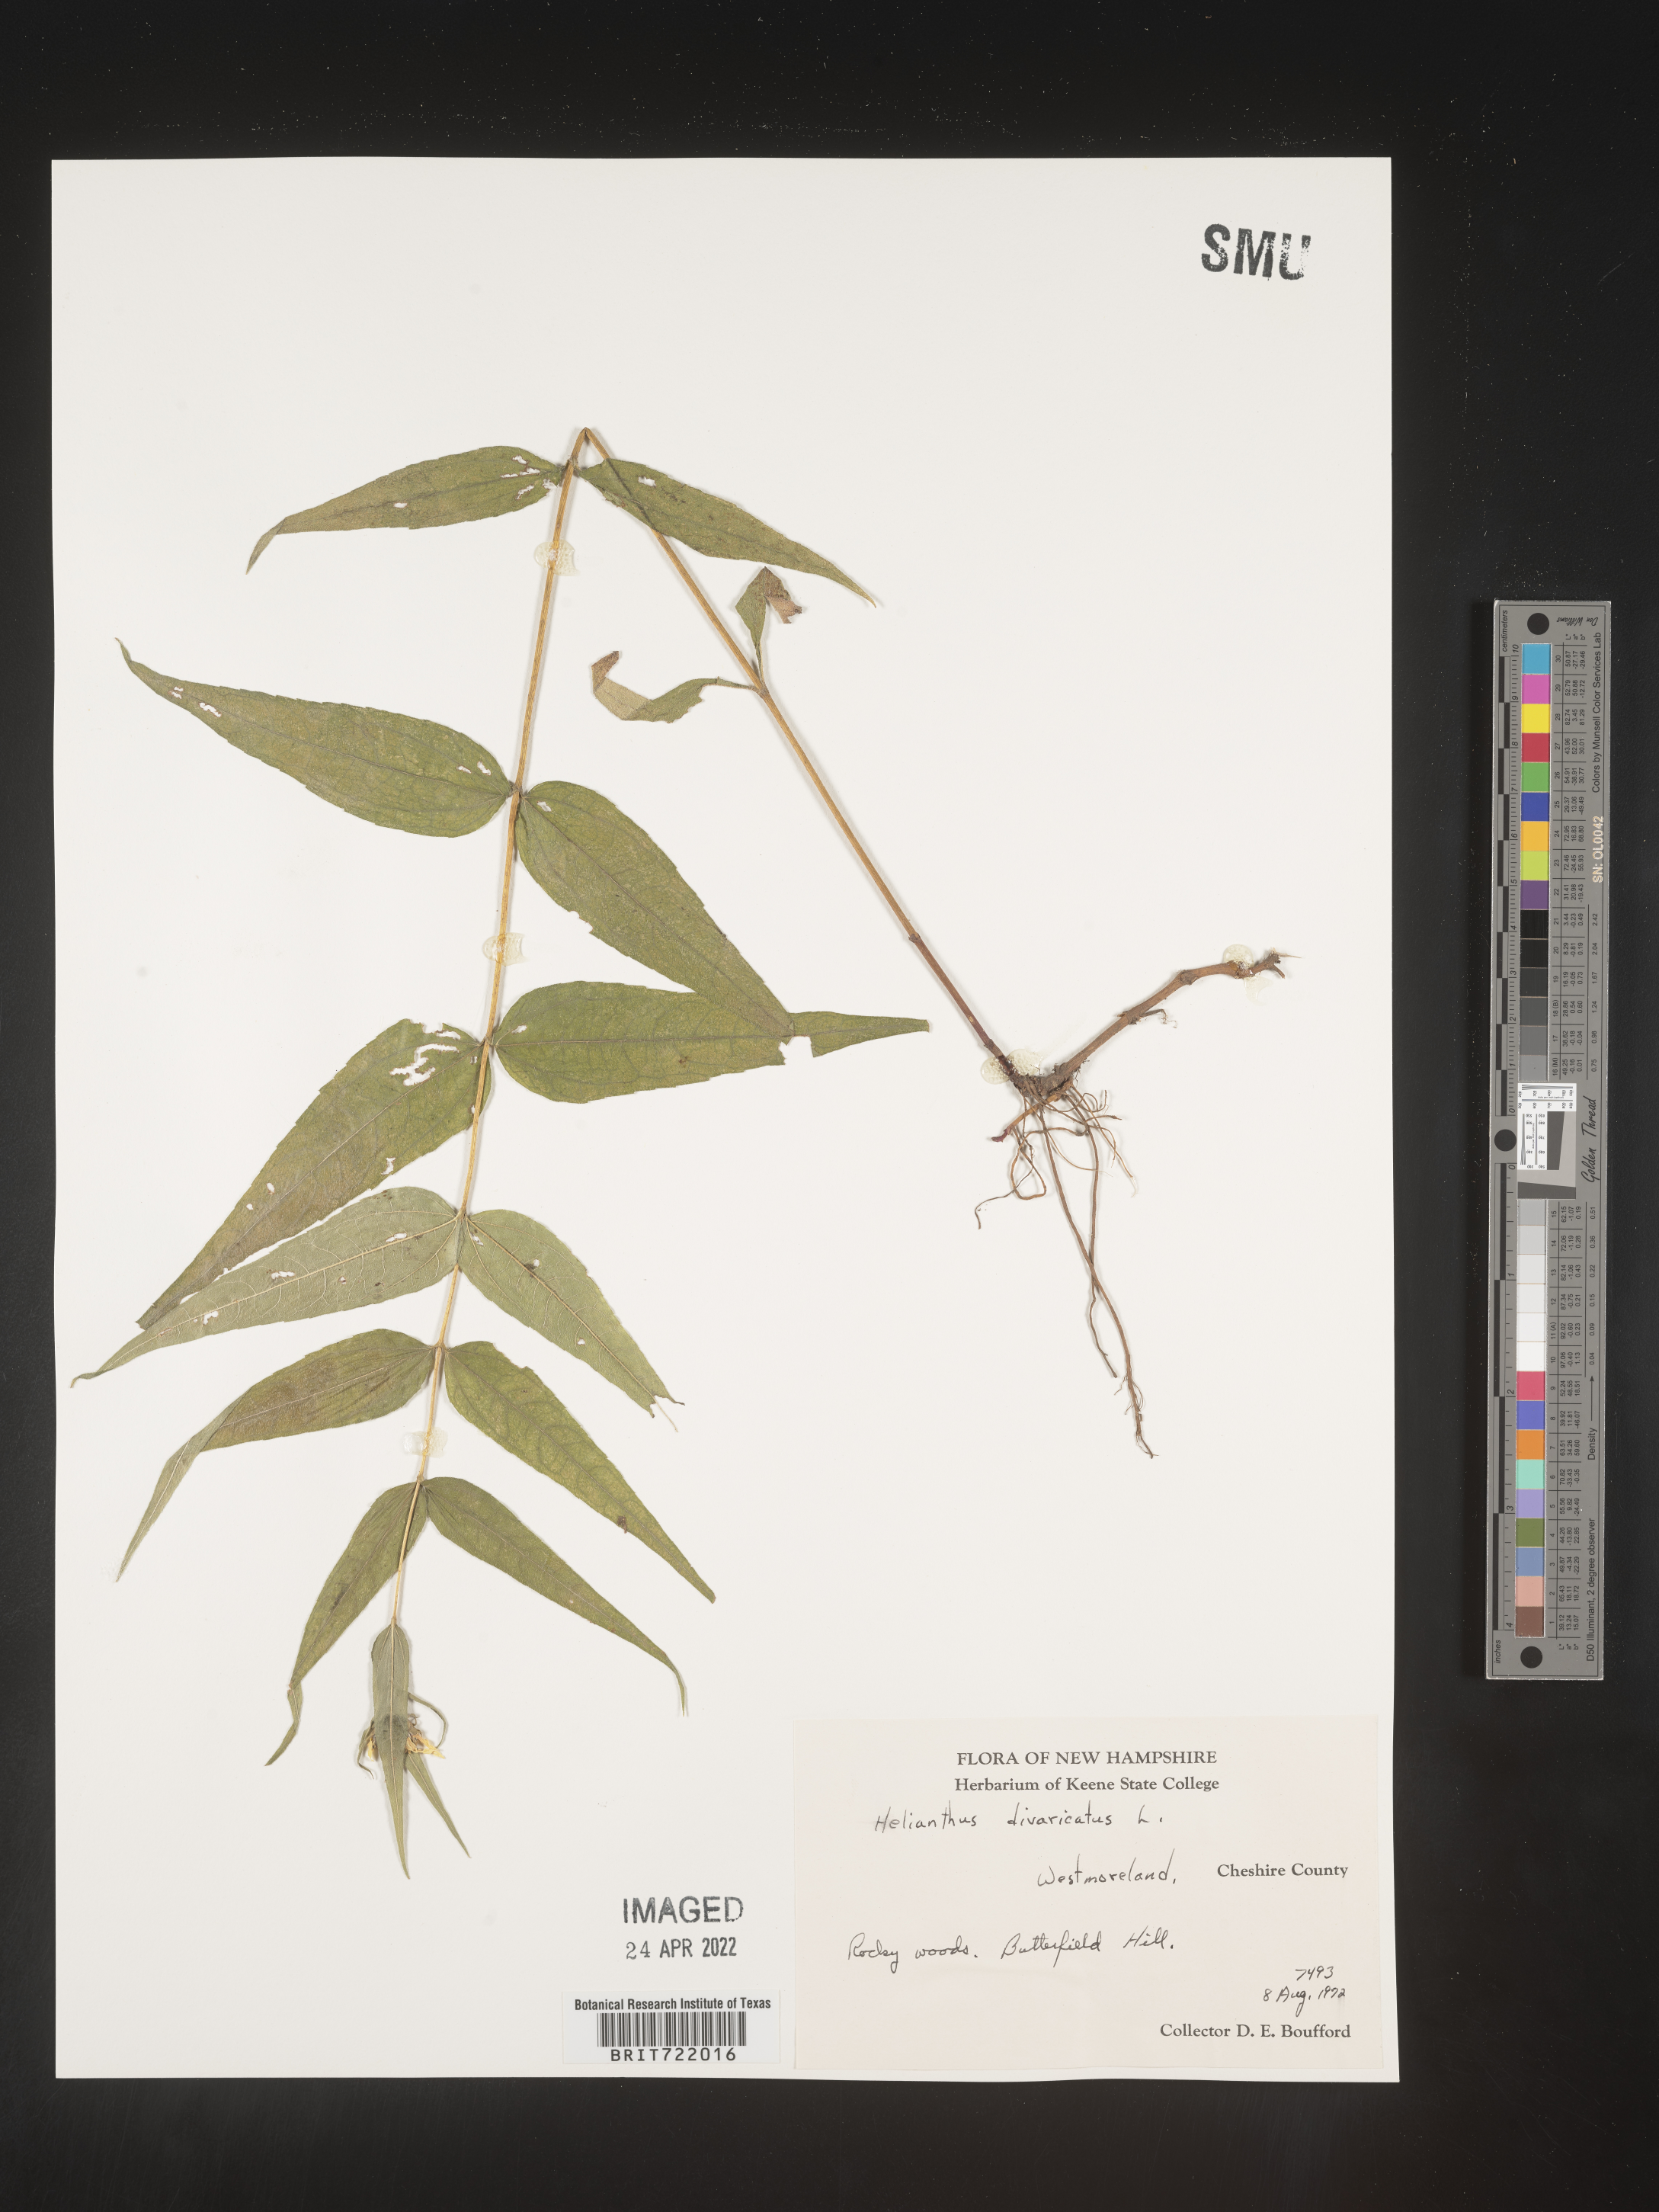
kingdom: Plantae
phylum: Tracheophyta
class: Magnoliopsida
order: Asterales
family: Asteraceae
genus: Helianthus
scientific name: Helianthus divaricatus
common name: Divergent sunflower
